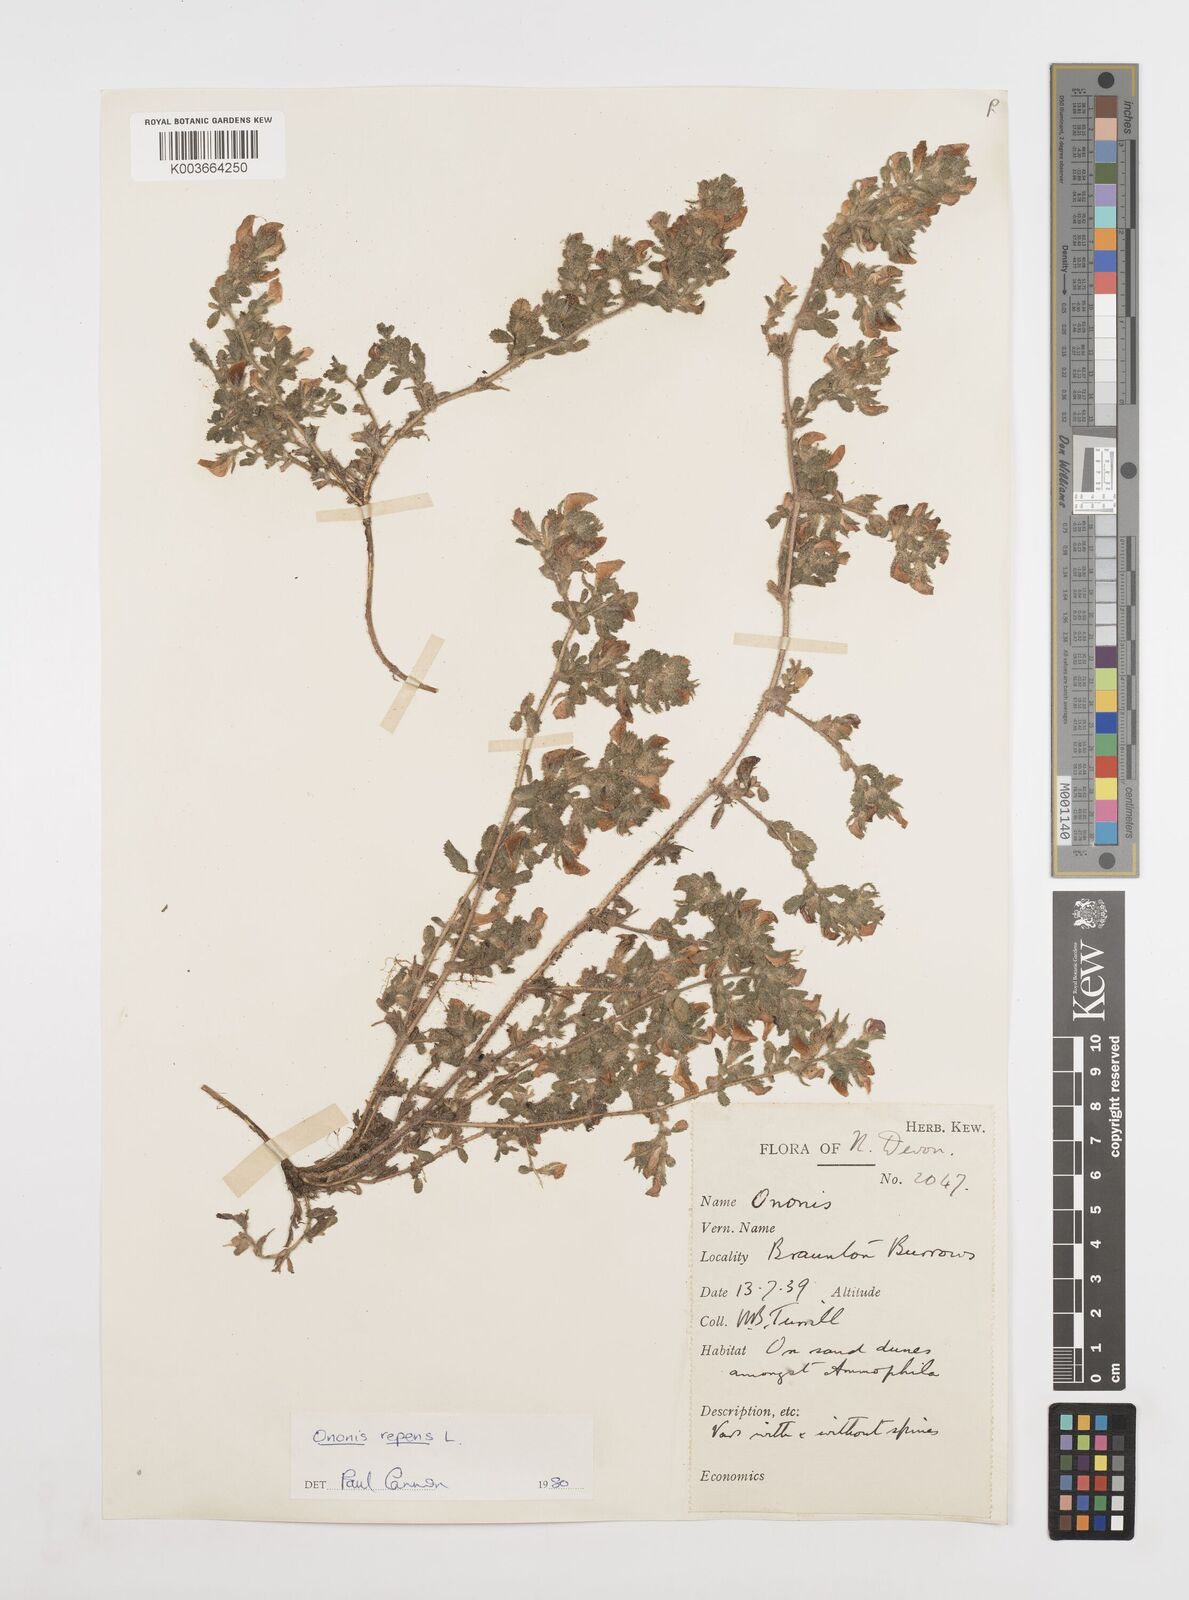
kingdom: Plantae
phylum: Tracheophyta
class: Magnoliopsida
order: Fabales
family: Fabaceae
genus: Ononis
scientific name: Ononis spinosa
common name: Spiny restharrow
